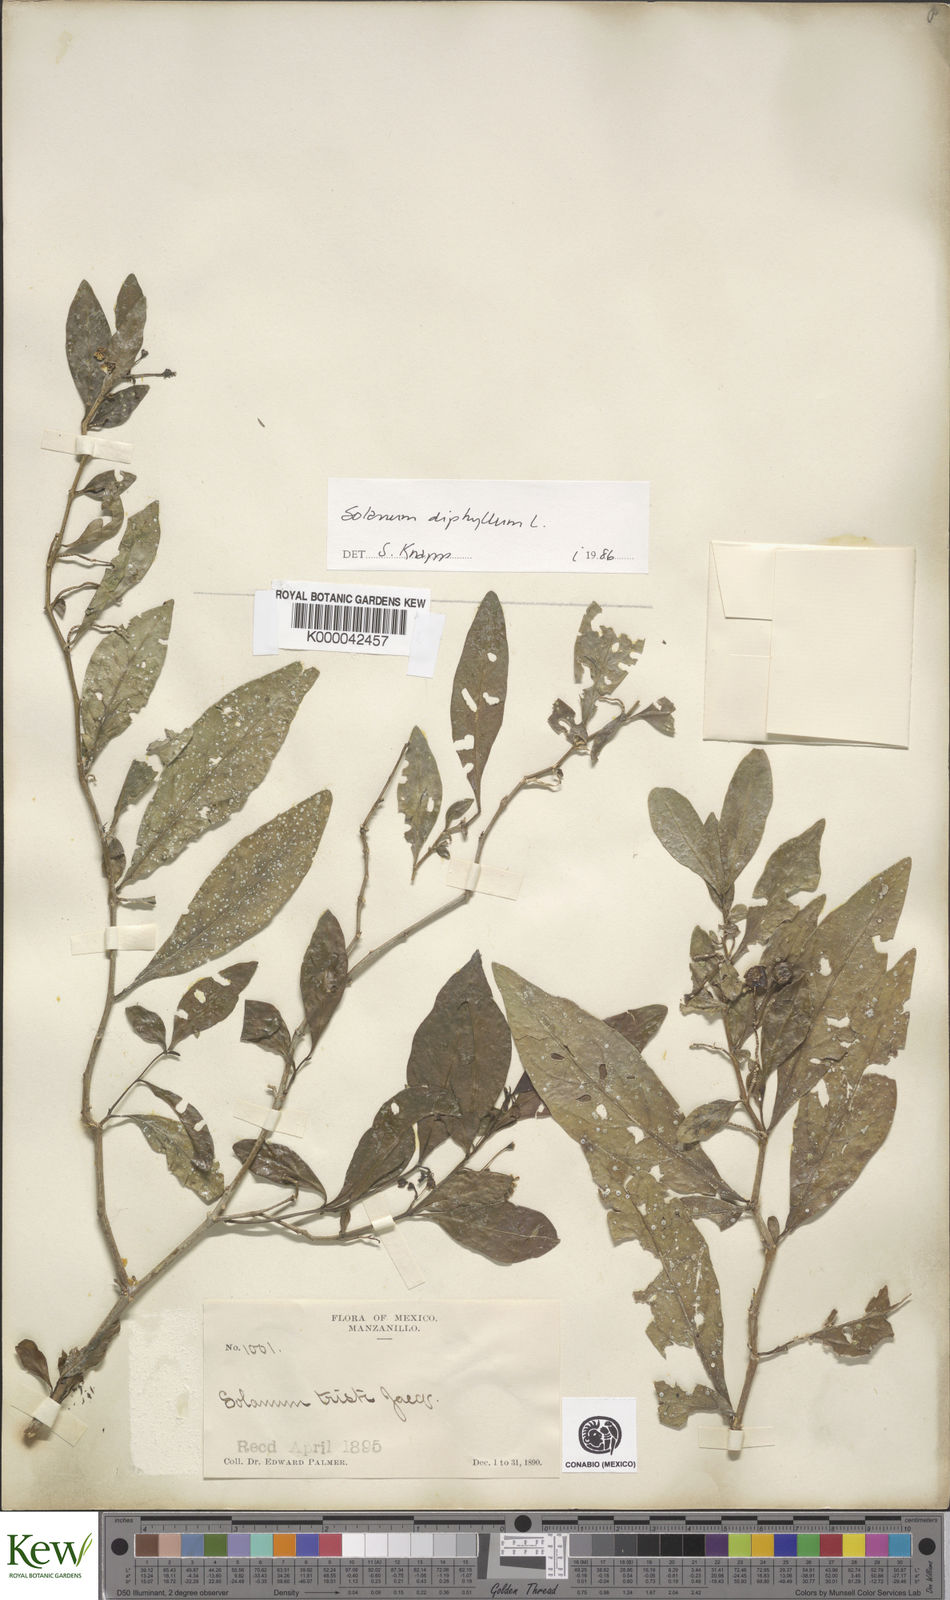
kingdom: Plantae
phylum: Tracheophyta
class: Magnoliopsida
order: Solanales
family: Solanaceae
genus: Solanum
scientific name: Solanum
